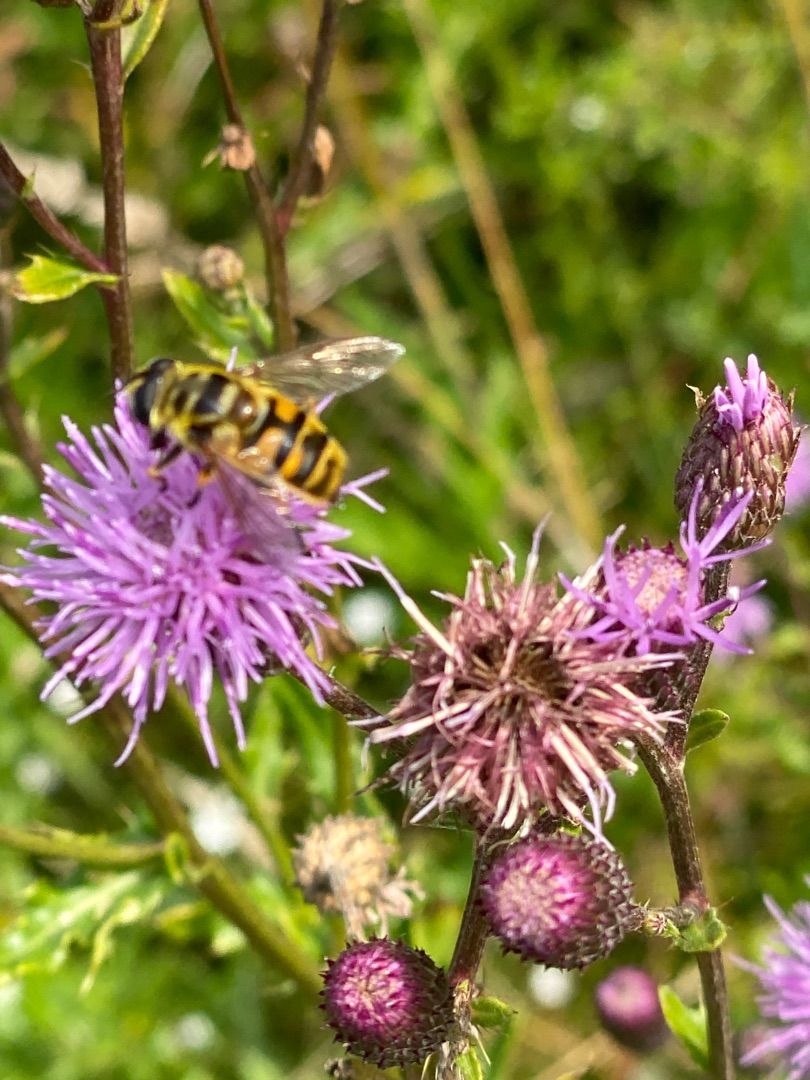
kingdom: Animalia
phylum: Arthropoda
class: Insecta
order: Diptera
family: Syrphidae
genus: Myathropa
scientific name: Myathropa florea
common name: Dødningehoved-svirreflue
